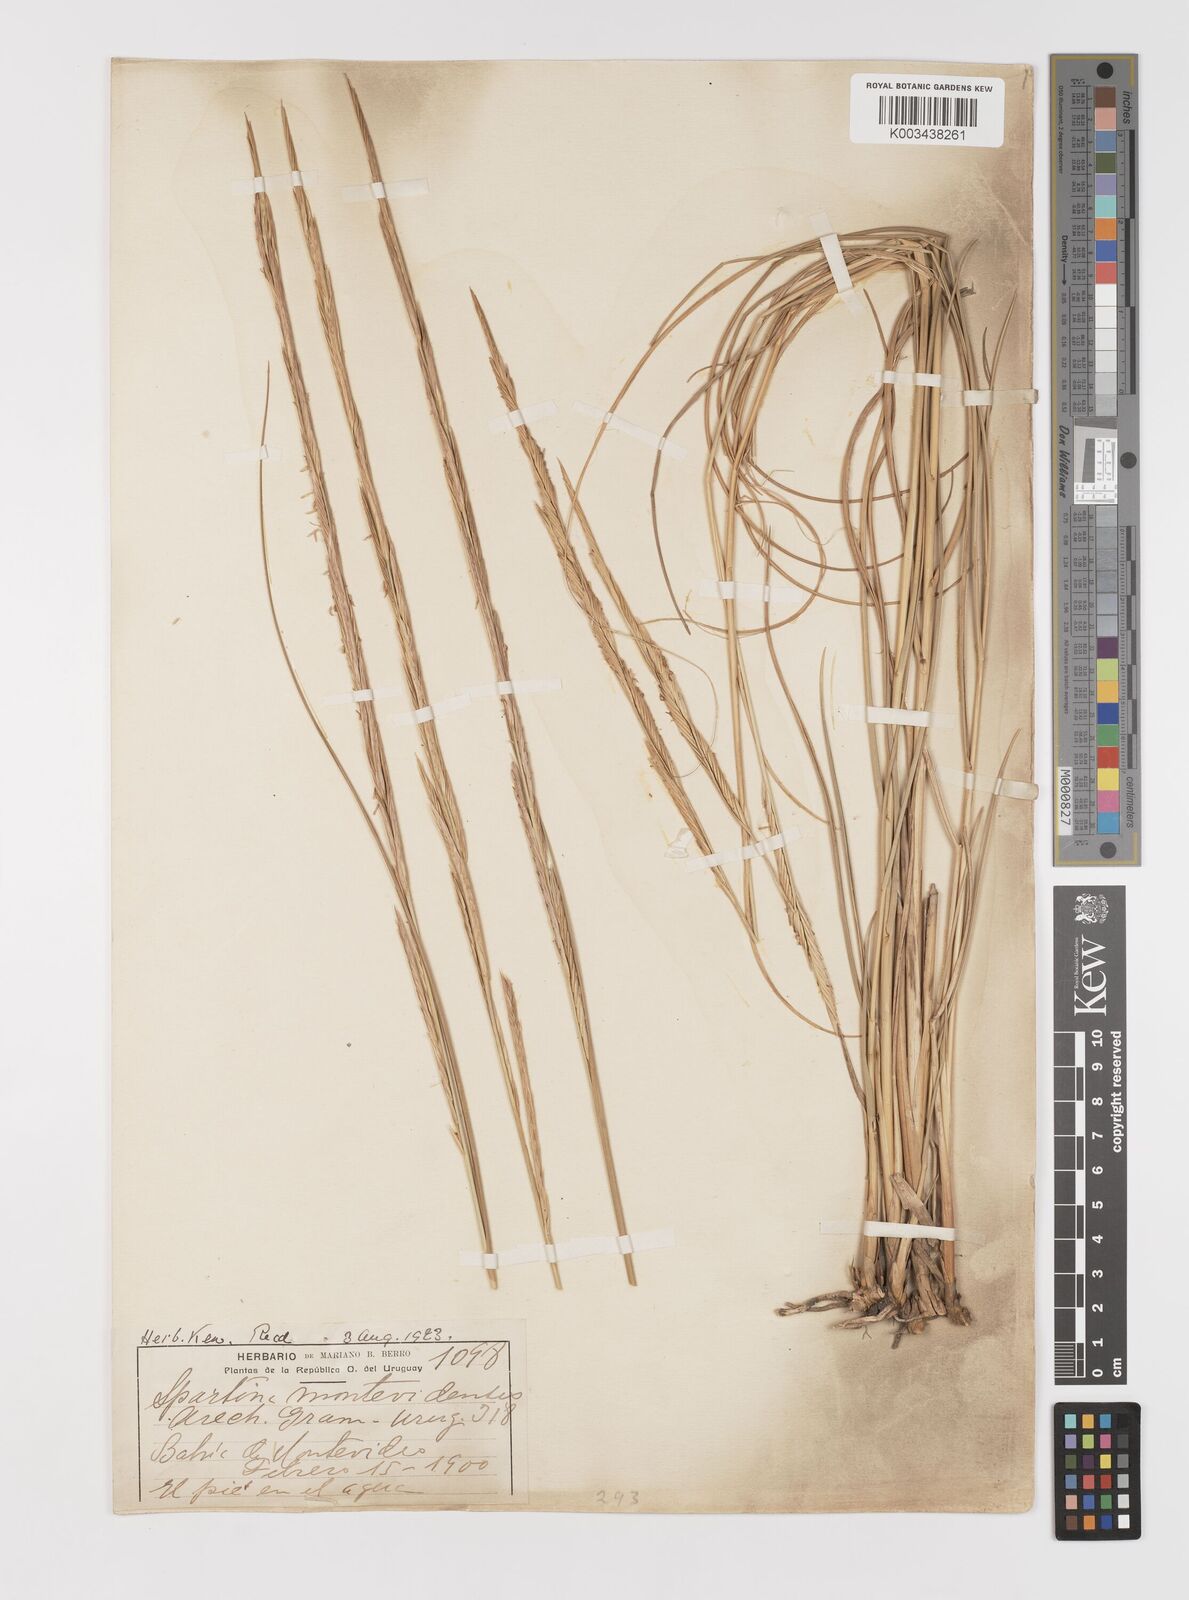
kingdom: Plantae
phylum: Tracheophyta
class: Liliopsida
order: Poales
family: Poaceae
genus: Sporobolus
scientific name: Sporobolus montevidensis
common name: Montevideo dropseed
